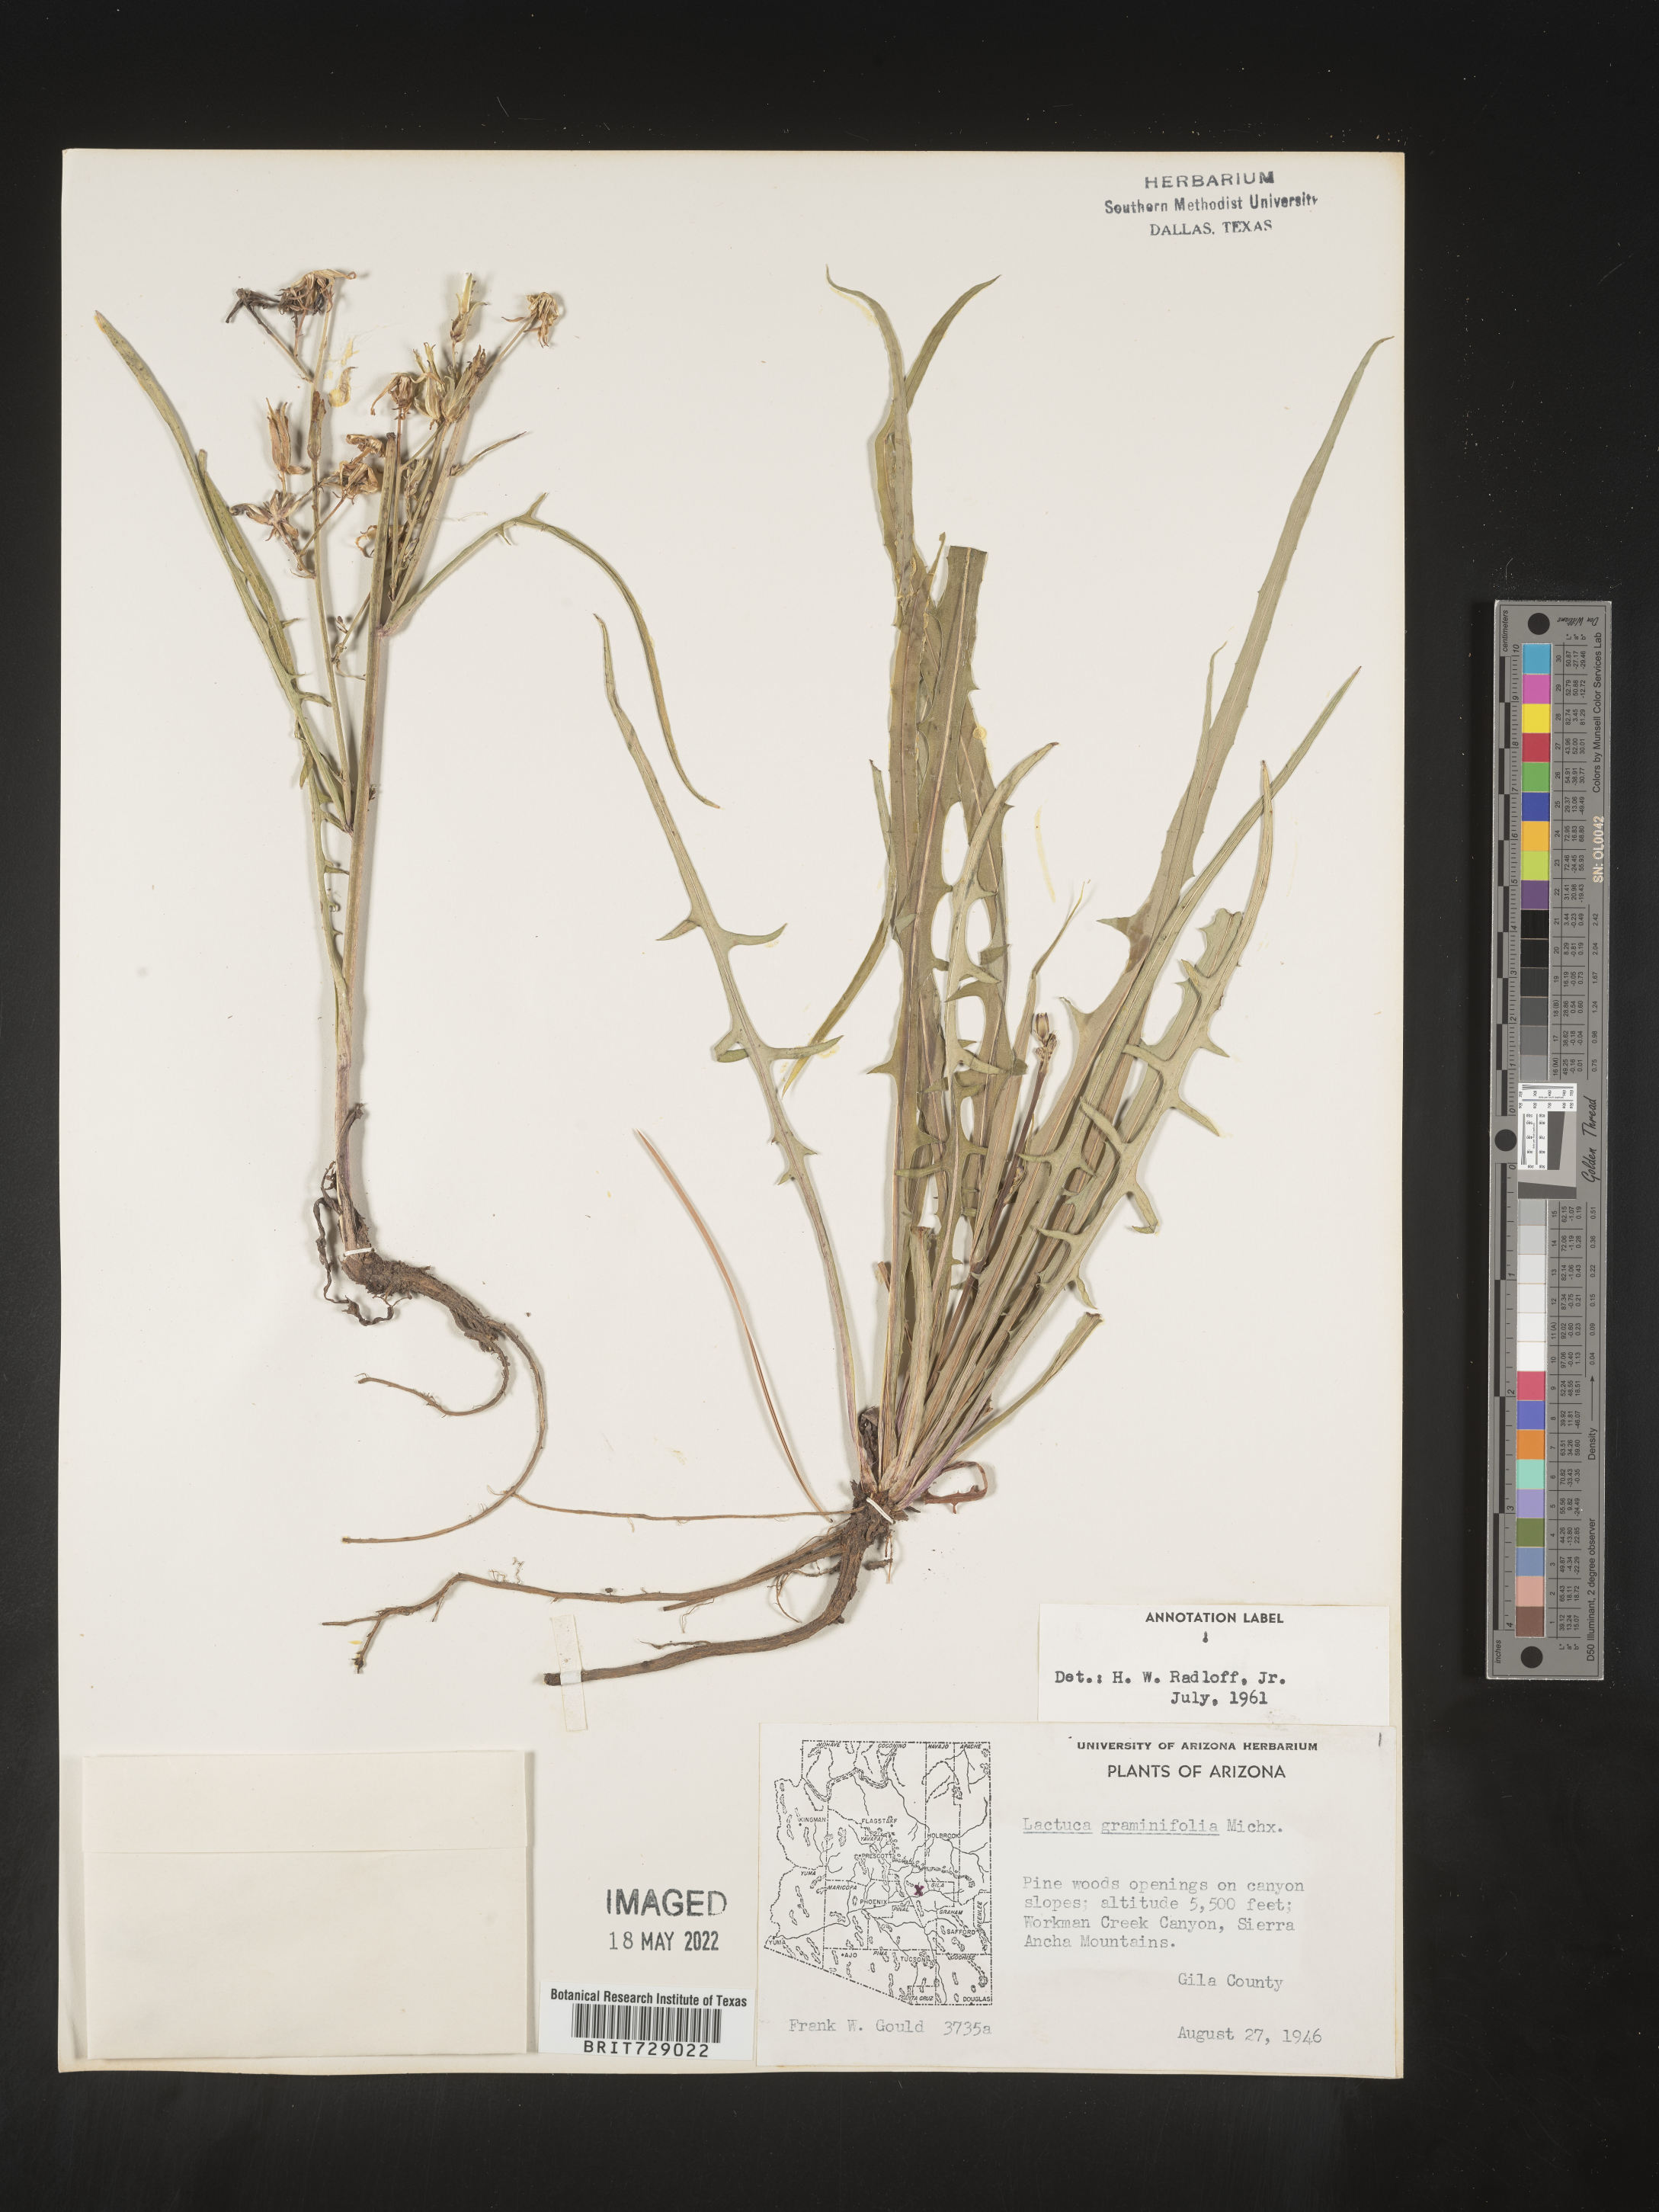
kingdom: Plantae
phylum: Tracheophyta
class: Magnoliopsida
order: Asterales
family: Asteraceae
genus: Lactuca
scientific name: Lactuca graminifolia
